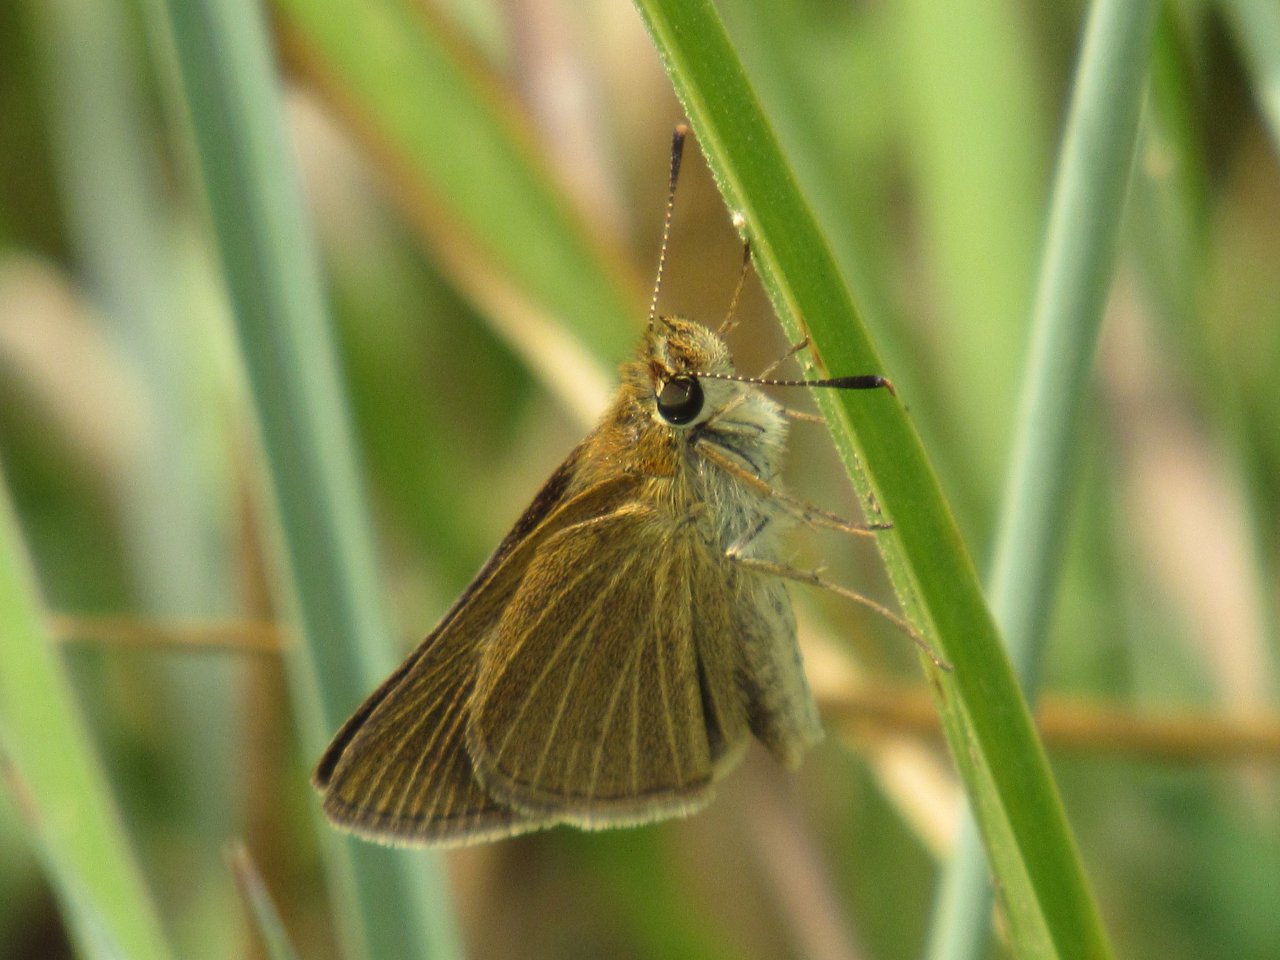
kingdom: Animalia
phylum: Arthropoda
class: Insecta
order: Lepidoptera
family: Hesperiidae
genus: Nastra
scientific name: Nastra lherminier
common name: Swarthy Skipper
